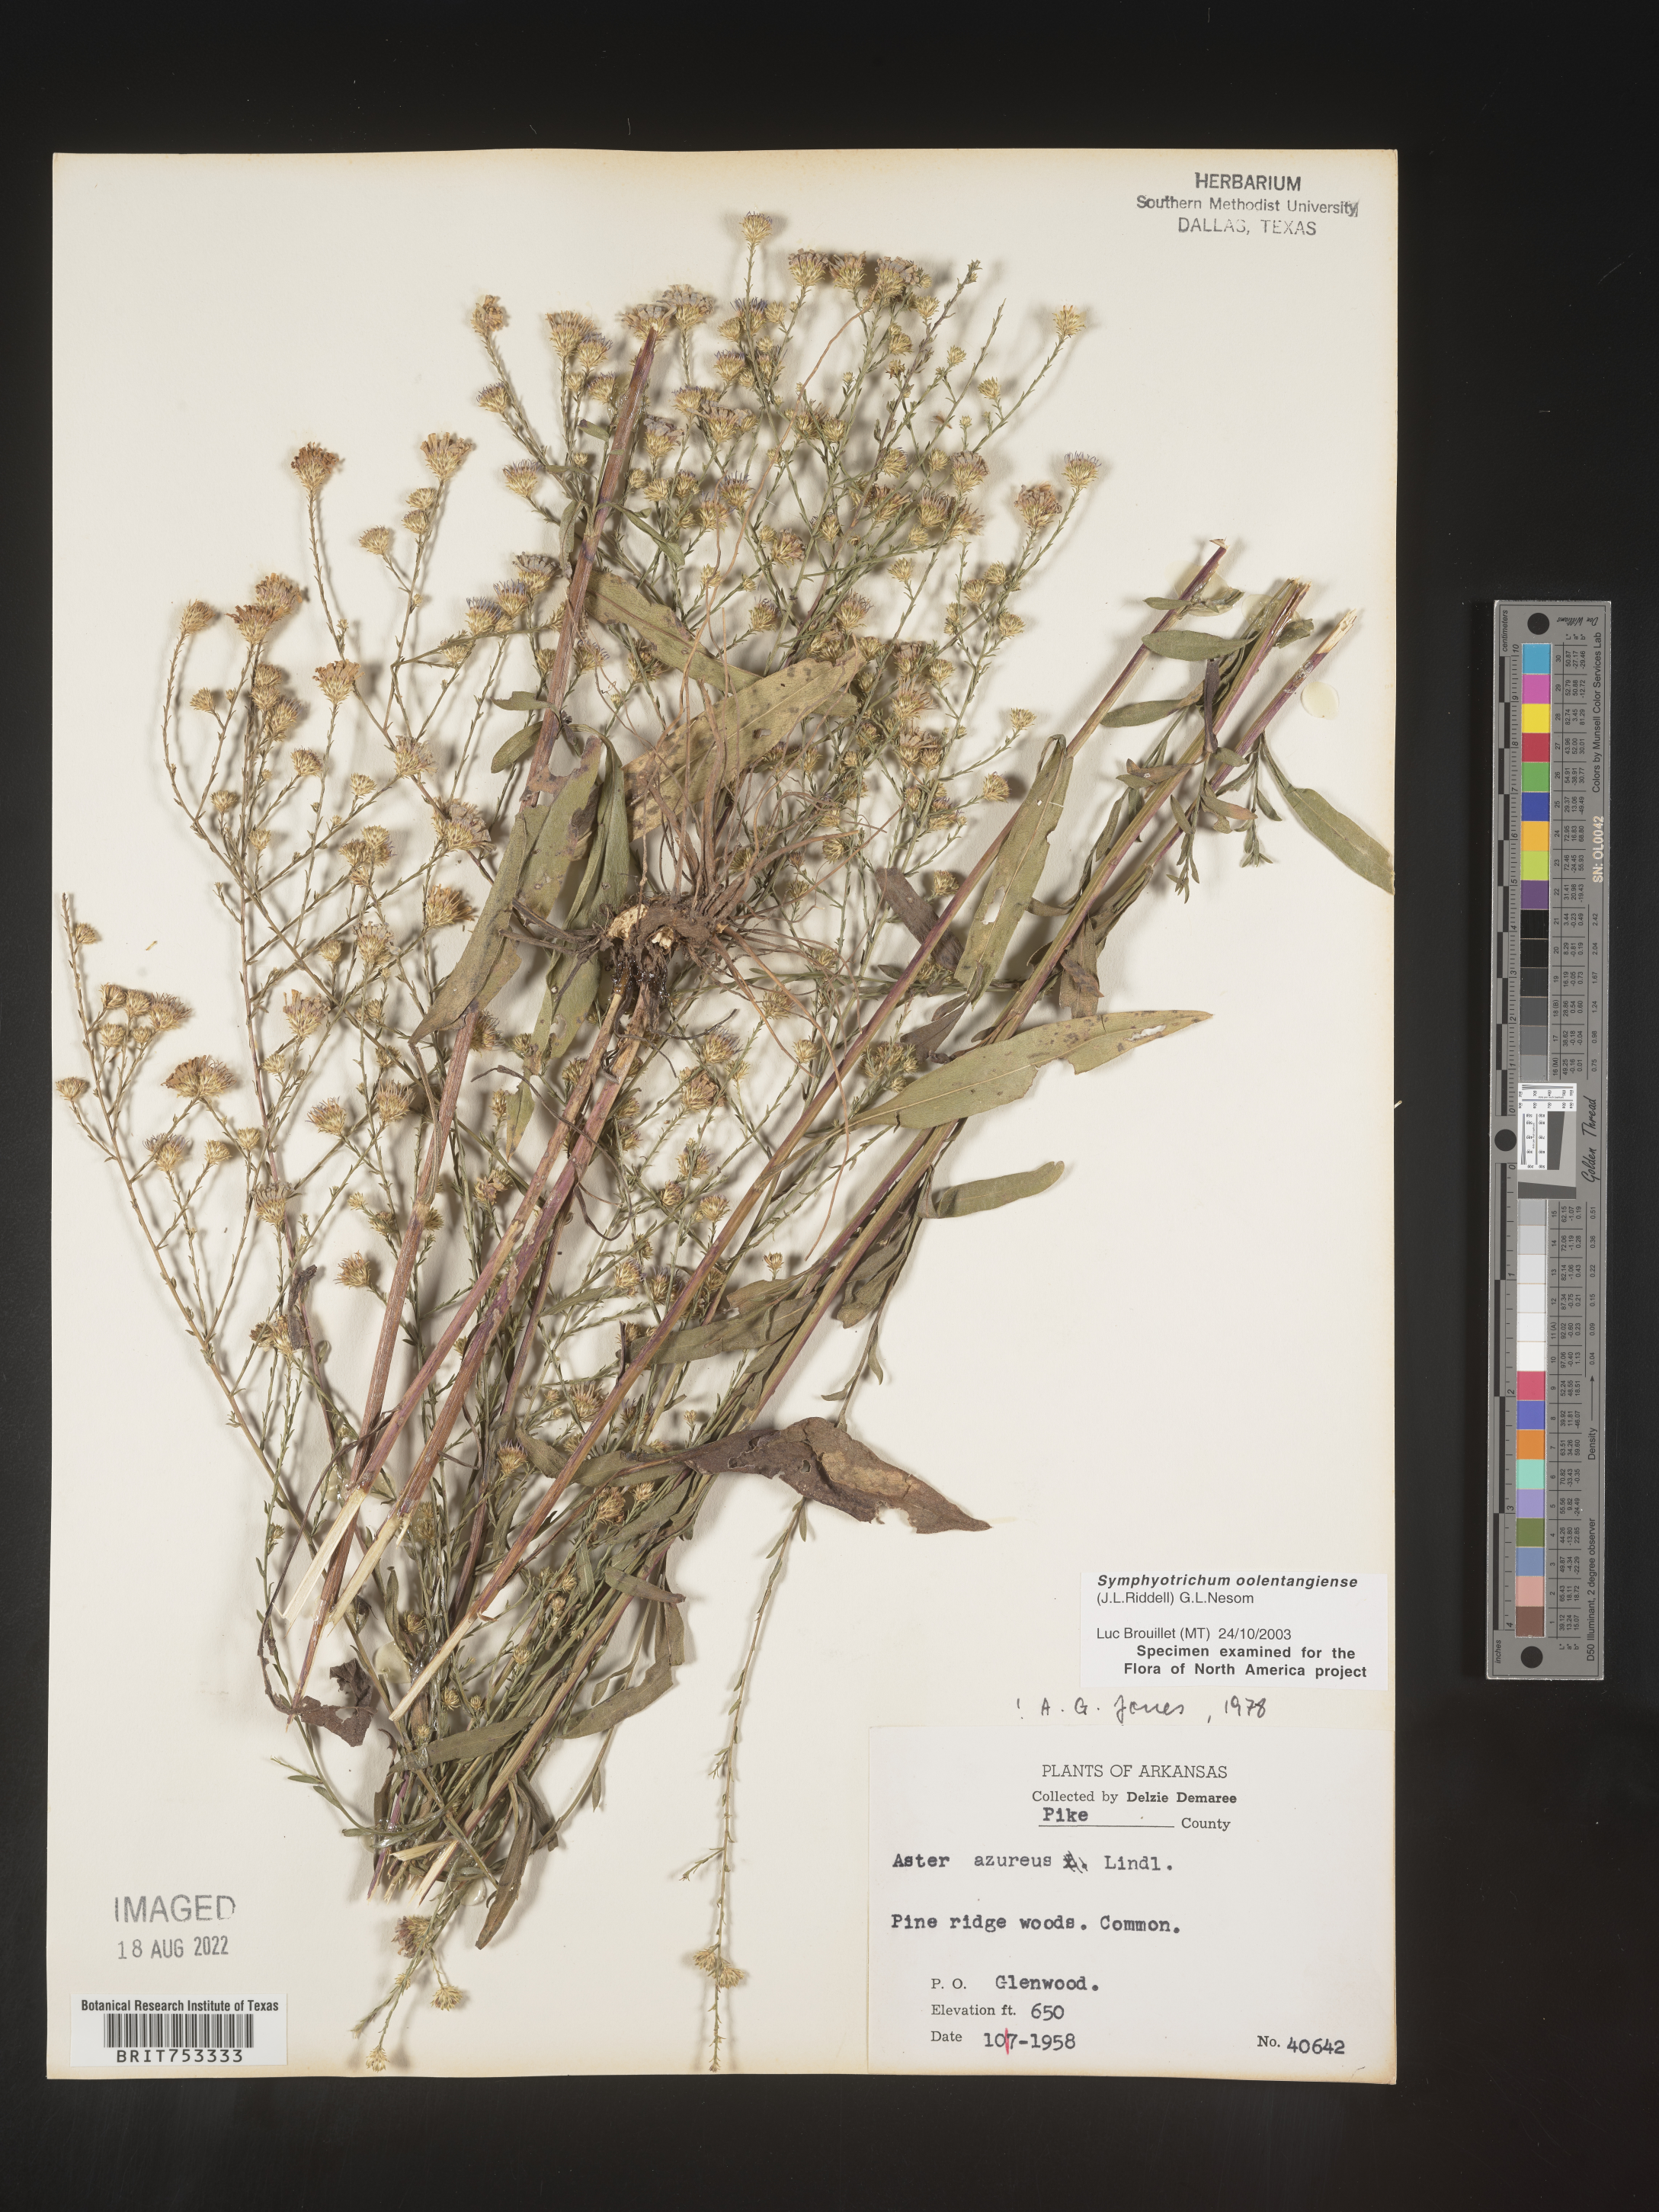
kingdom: Plantae
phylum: Tracheophyta
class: Magnoliopsida
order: Asterales
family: Asteraceae
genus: Symphyotrichum
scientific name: Symphyotrichum oolentangiense
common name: Azure aster
